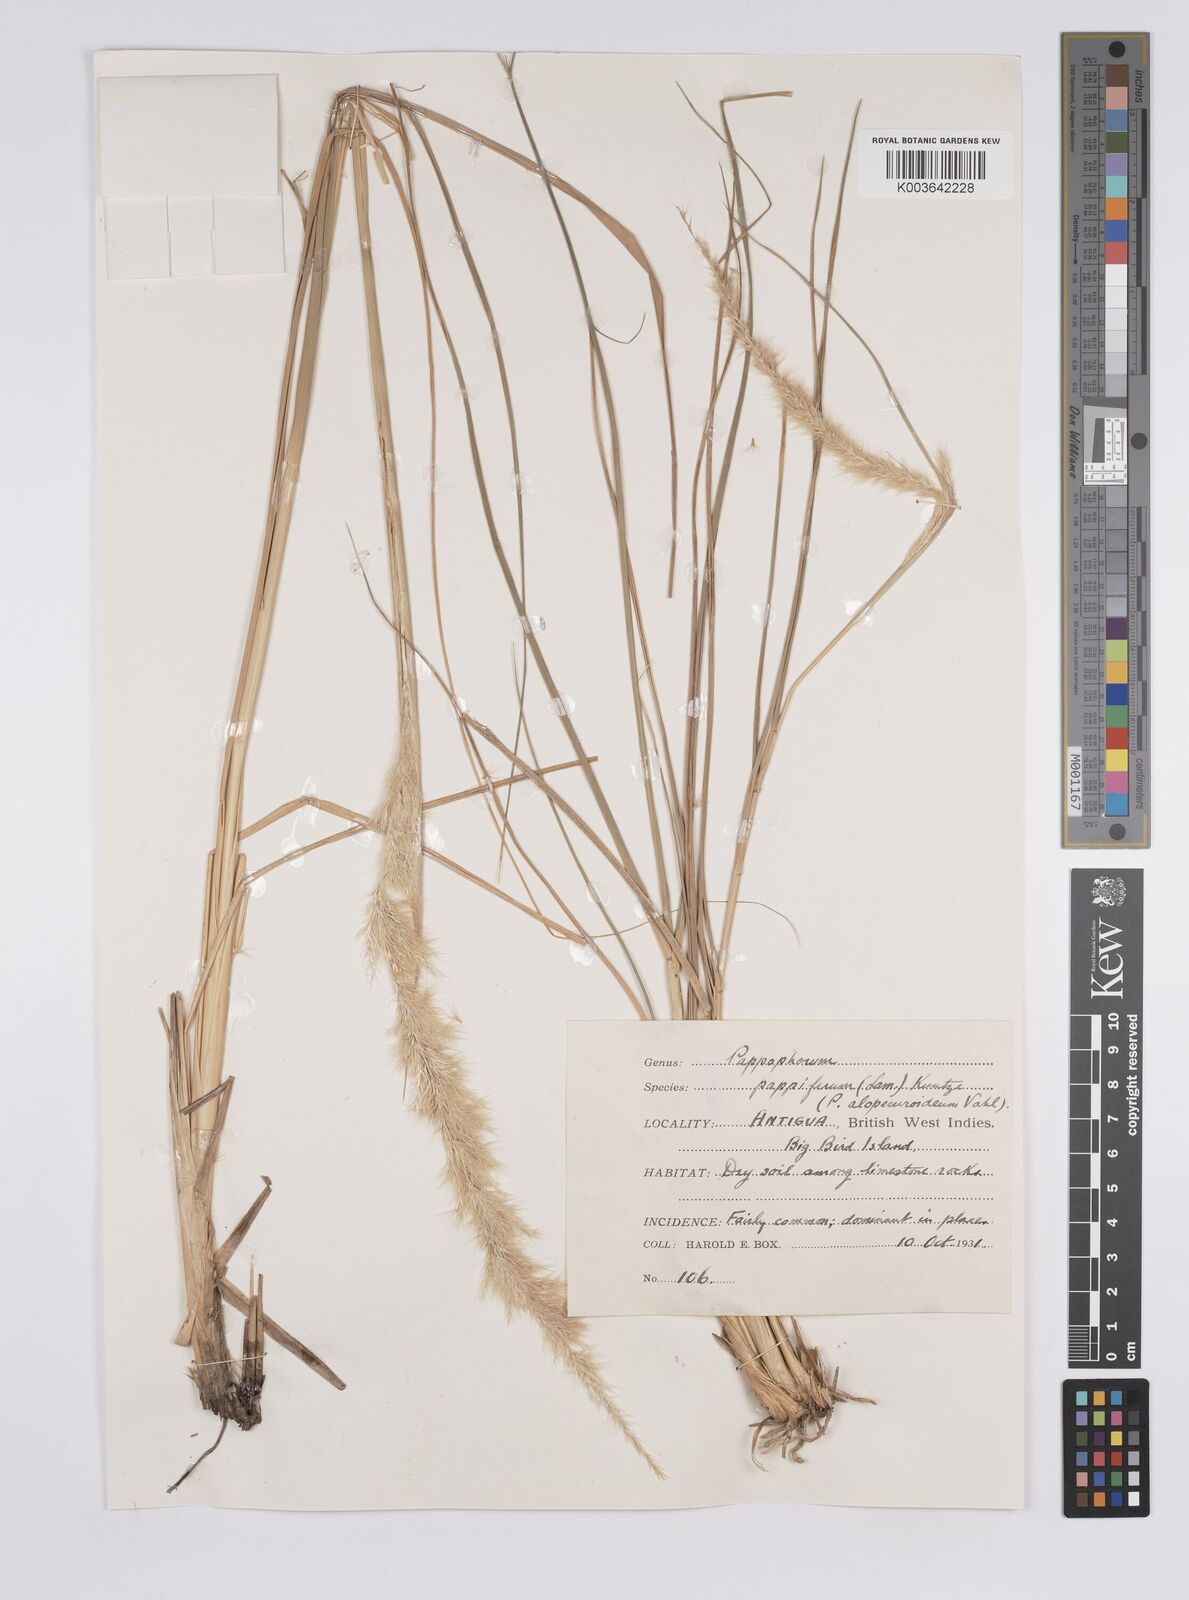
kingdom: Plantae
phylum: Tracheophyta
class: Liliopsida
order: Poales
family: Poaceae
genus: Pappophorum
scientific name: Pappophorum pappiferum
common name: Crabgrass
